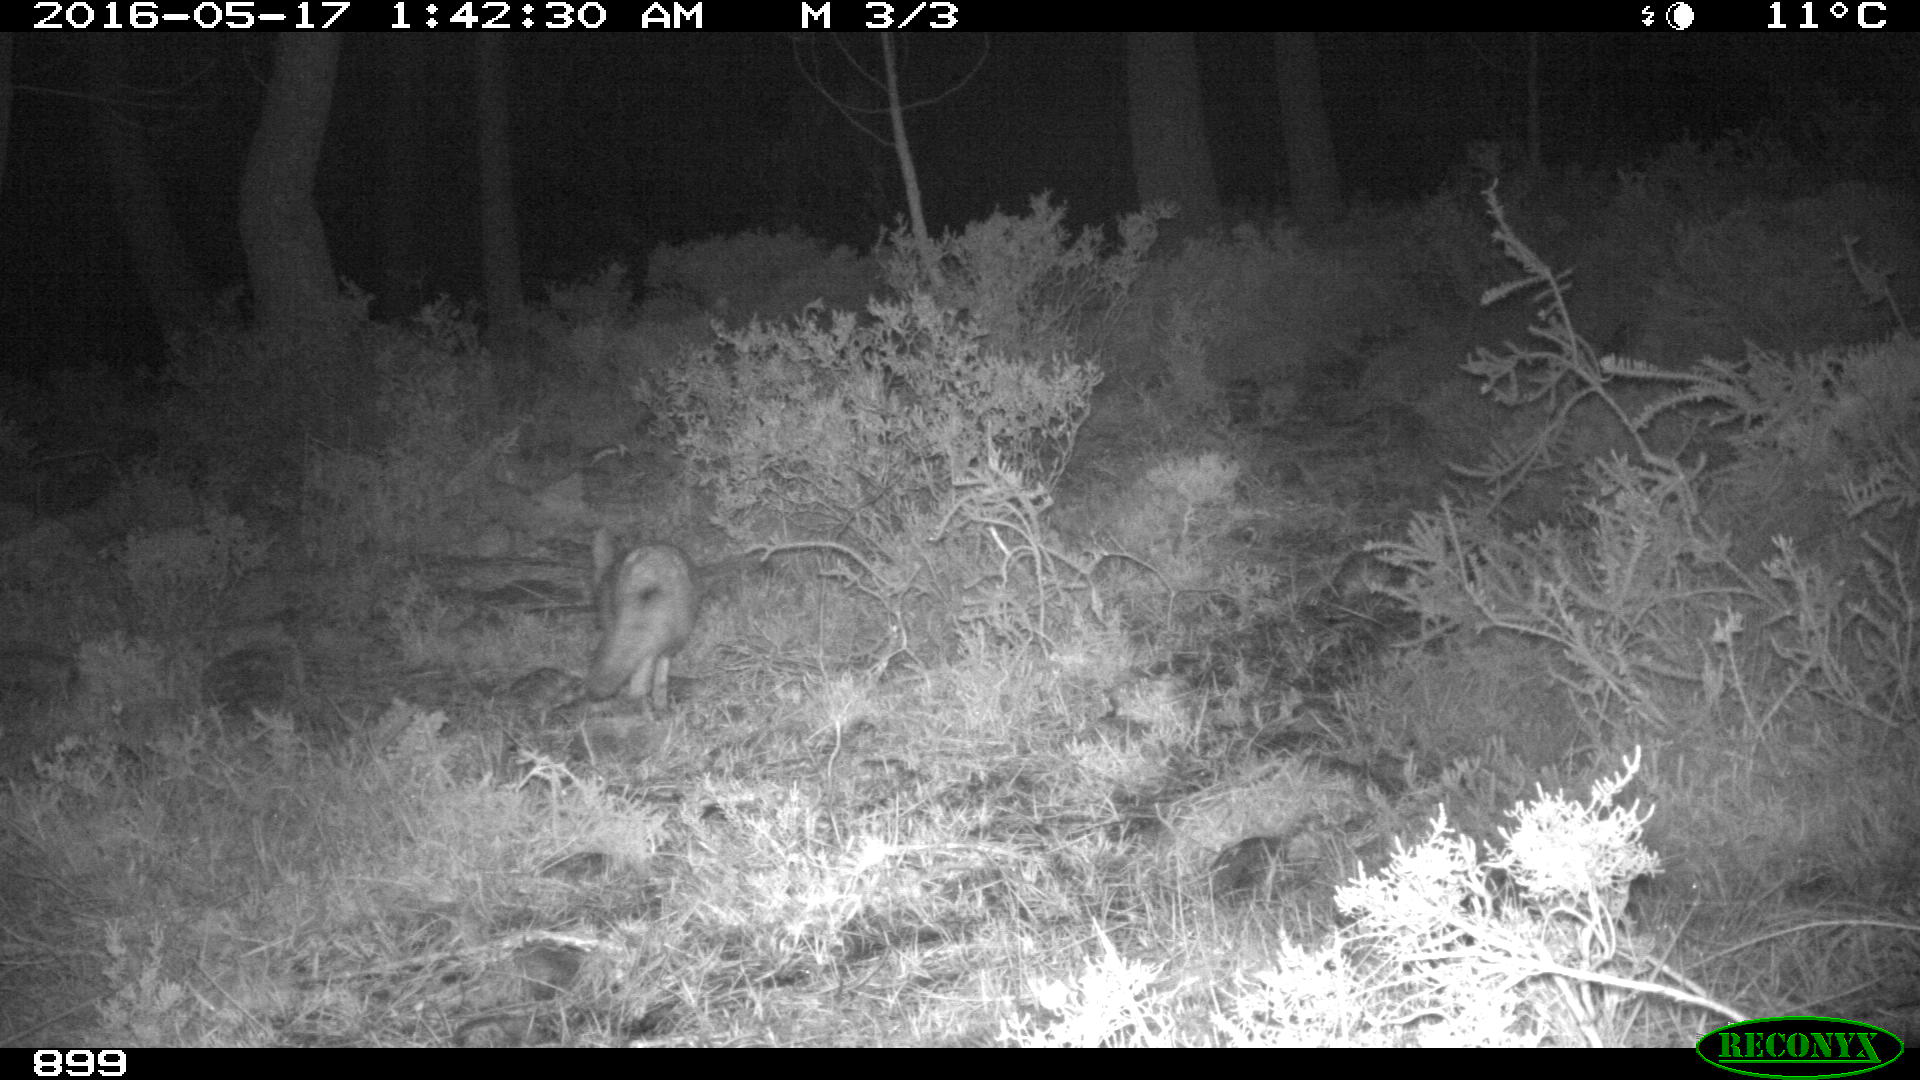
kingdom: Animalia
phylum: Chordata
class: Mammalia
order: Carnivora
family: Canidae
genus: Vulpes
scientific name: Vulpes vulpes
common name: Red fox
